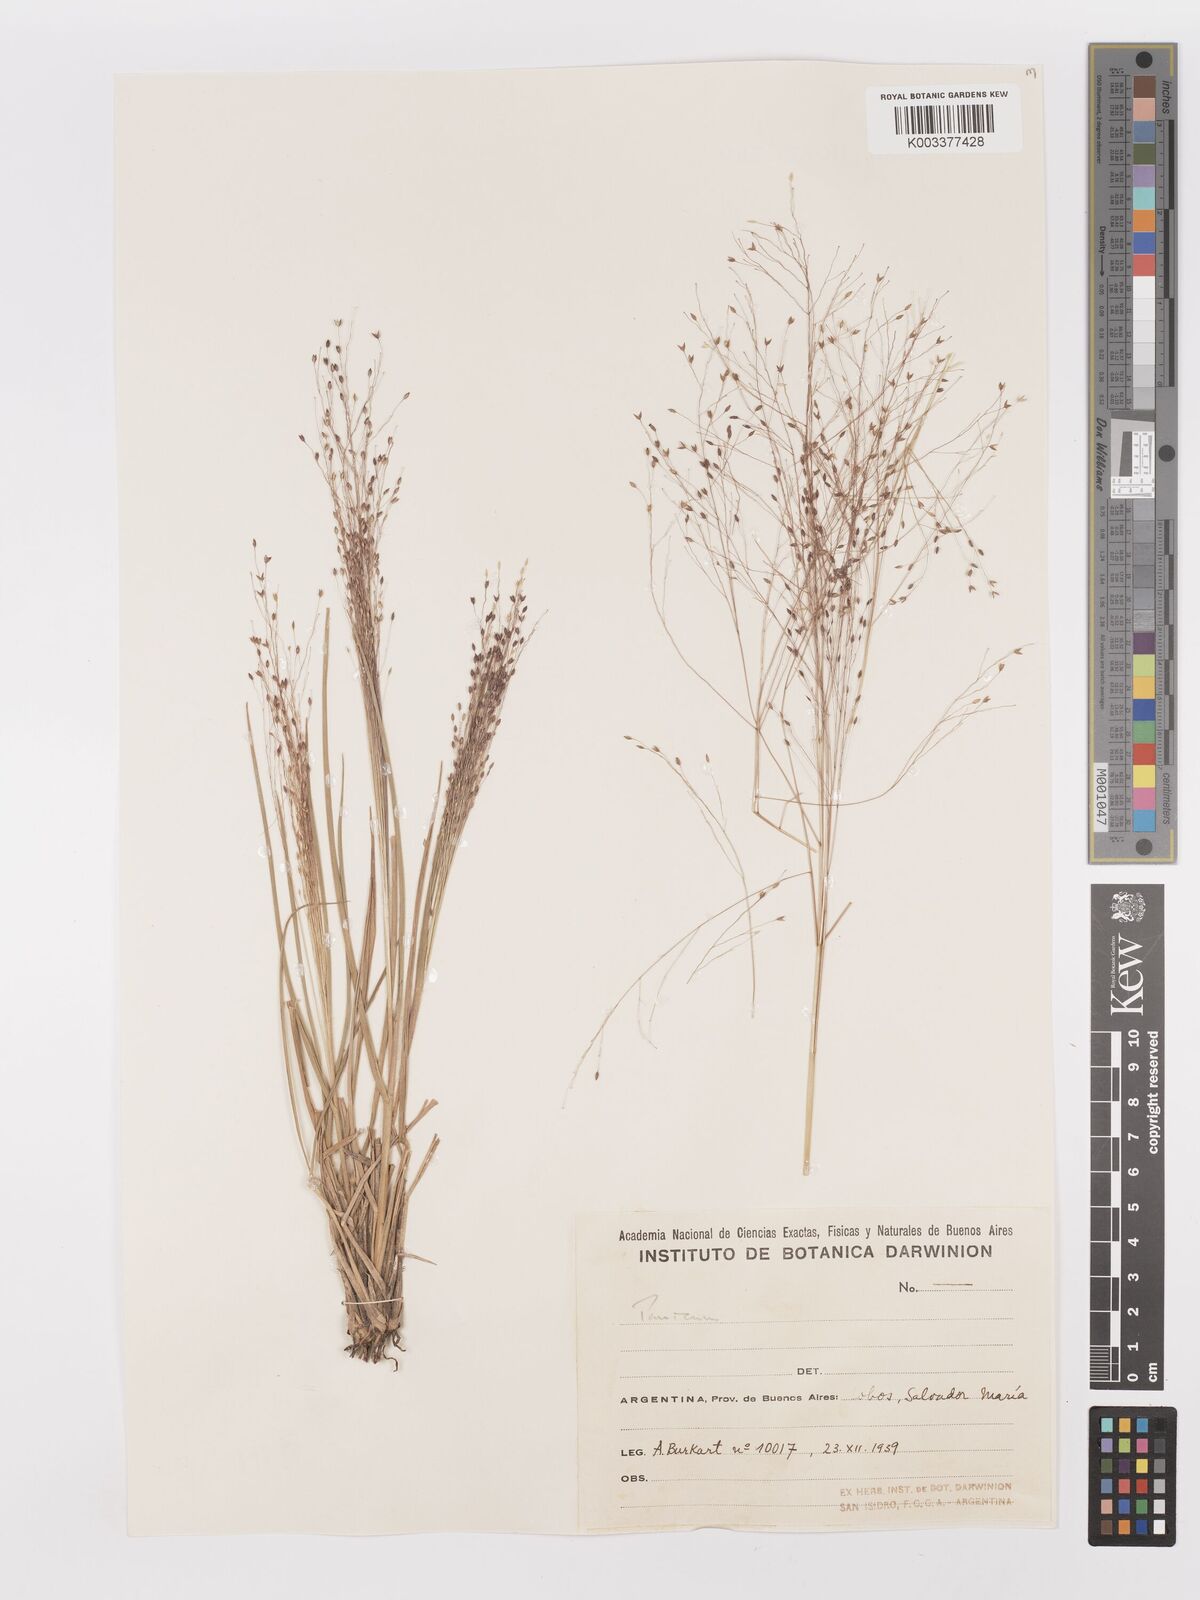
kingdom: Plantae
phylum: Tracheophyta
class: Liliopsida
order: Poales
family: Poaceae
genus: Panicum
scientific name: Panicum bergii
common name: Berg's panicgrass
